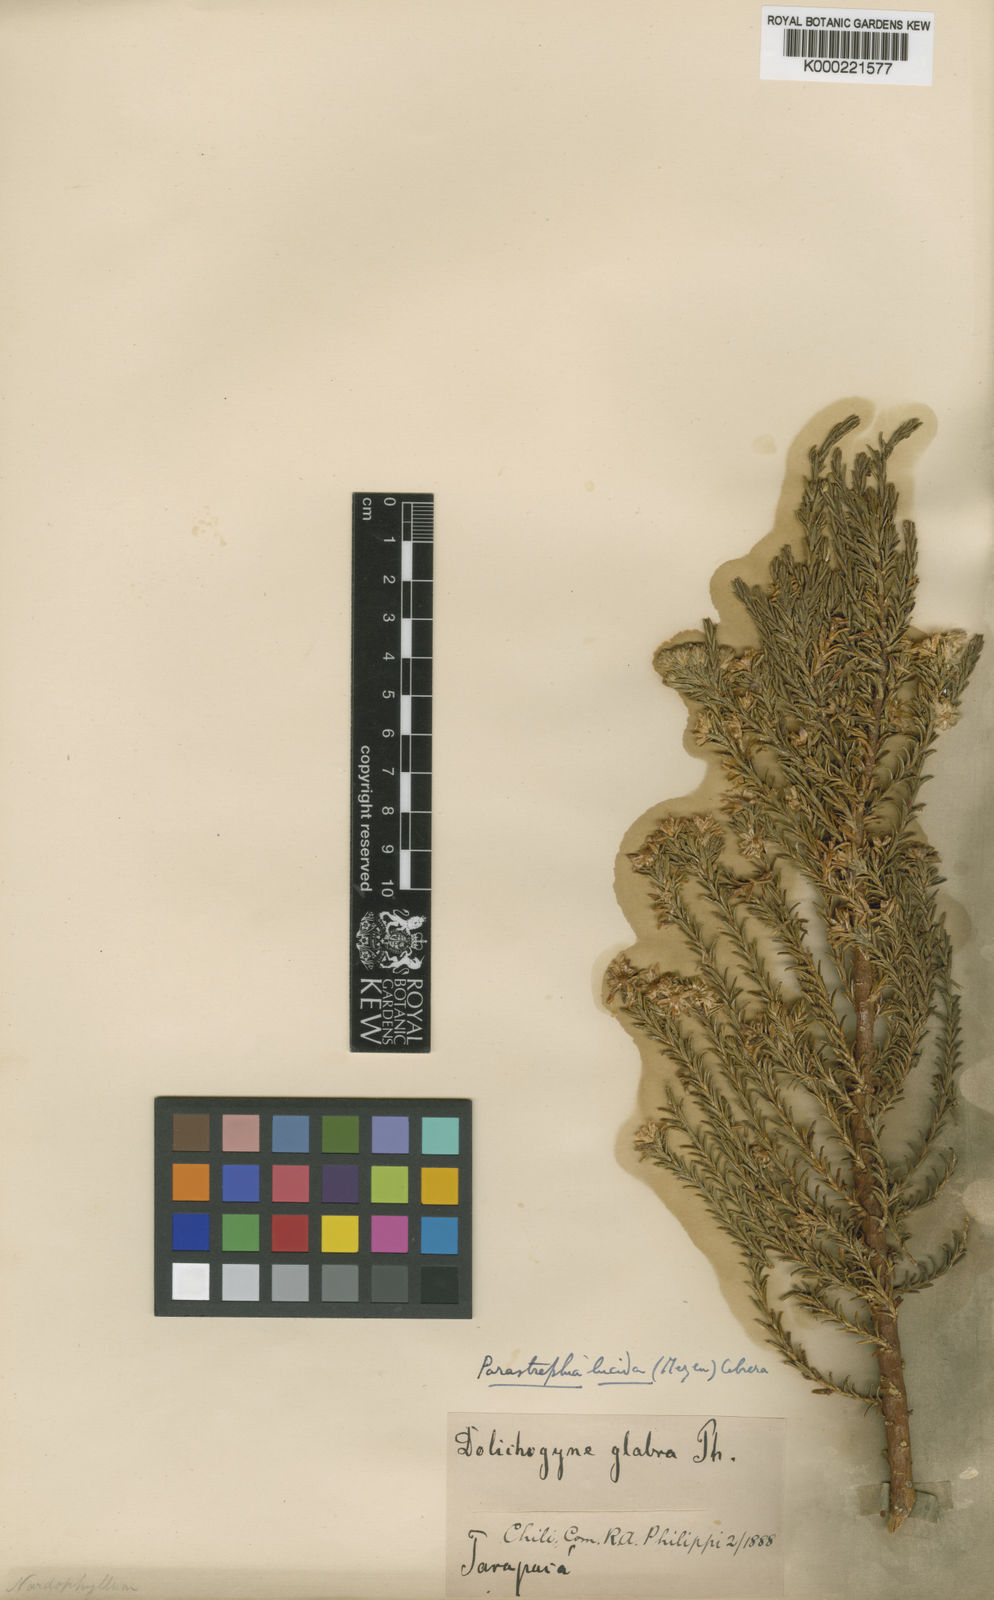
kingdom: Plantae
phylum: Tracheophyta
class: Magnoliopsida
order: Asterales
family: Asteraceae
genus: Parastrephia
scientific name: Parastrephia lucida
